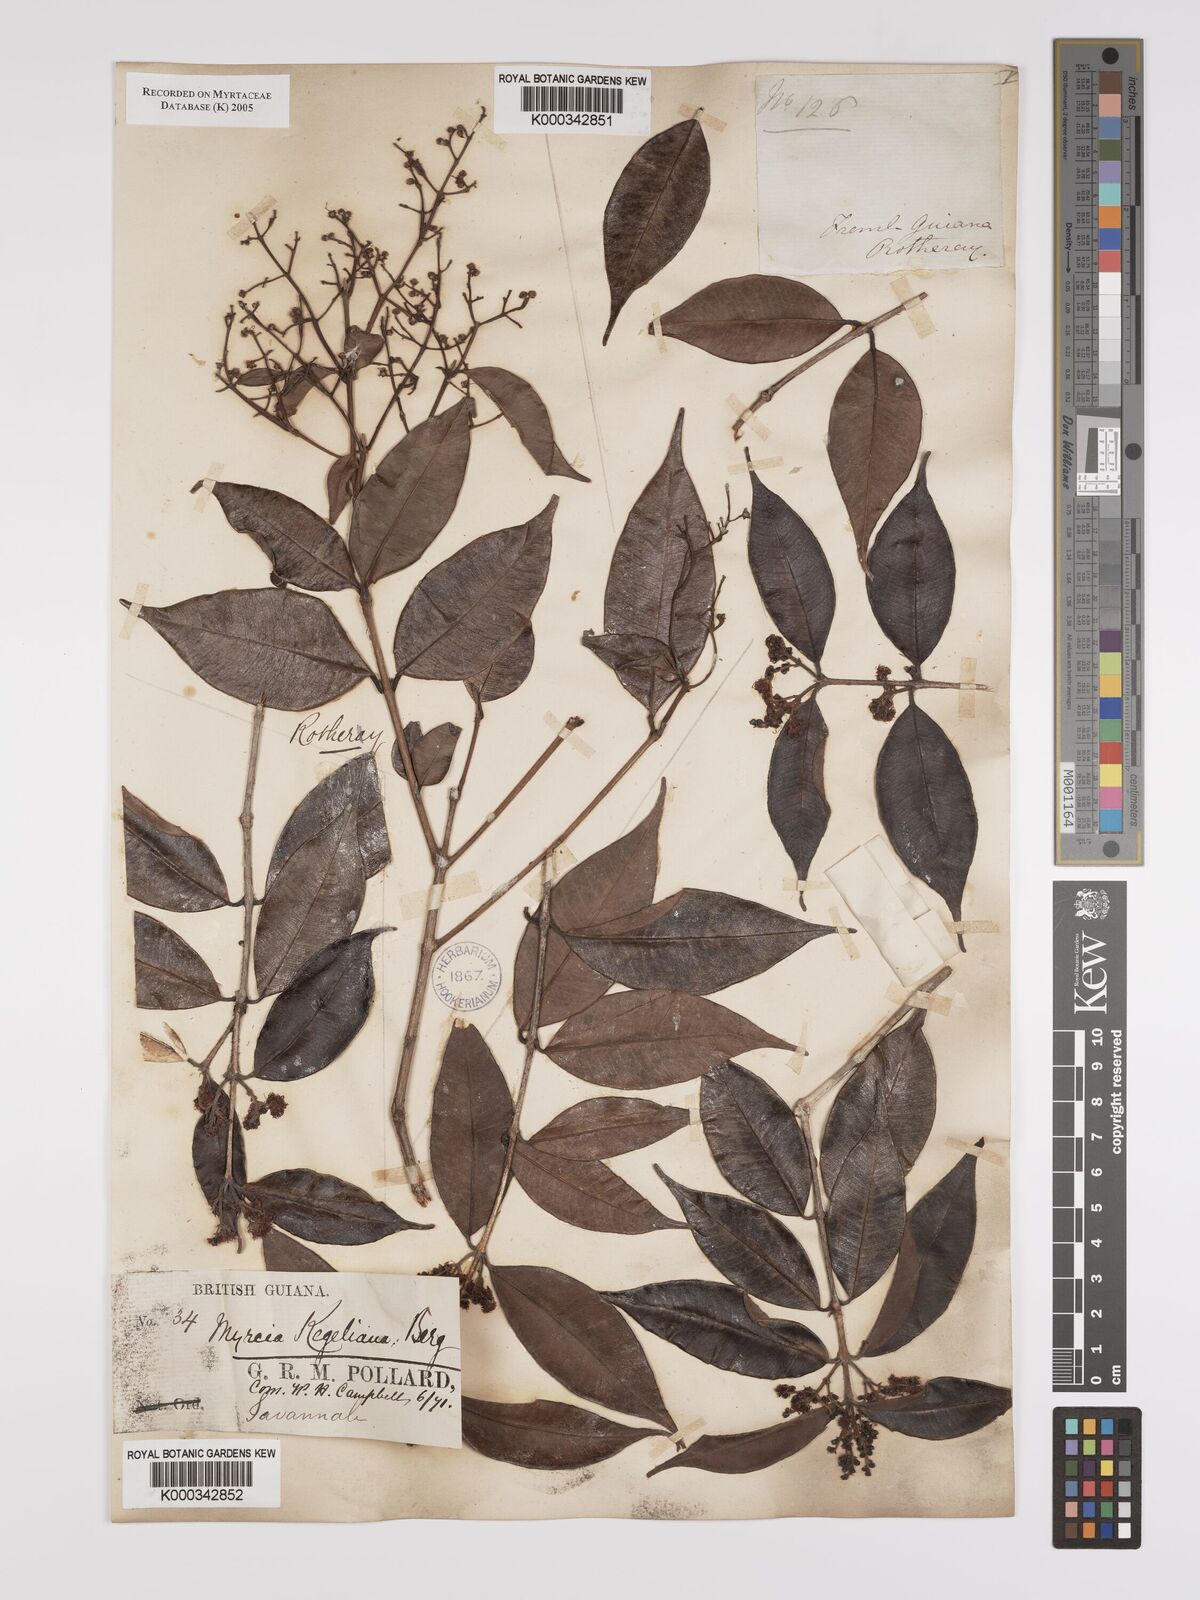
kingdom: Plantae
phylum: Tracheophyta
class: Magnoliopsida
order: Myrtales
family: Myrtaceae
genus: Myrcia
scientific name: Myrcia splendens
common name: Surinam cherry
